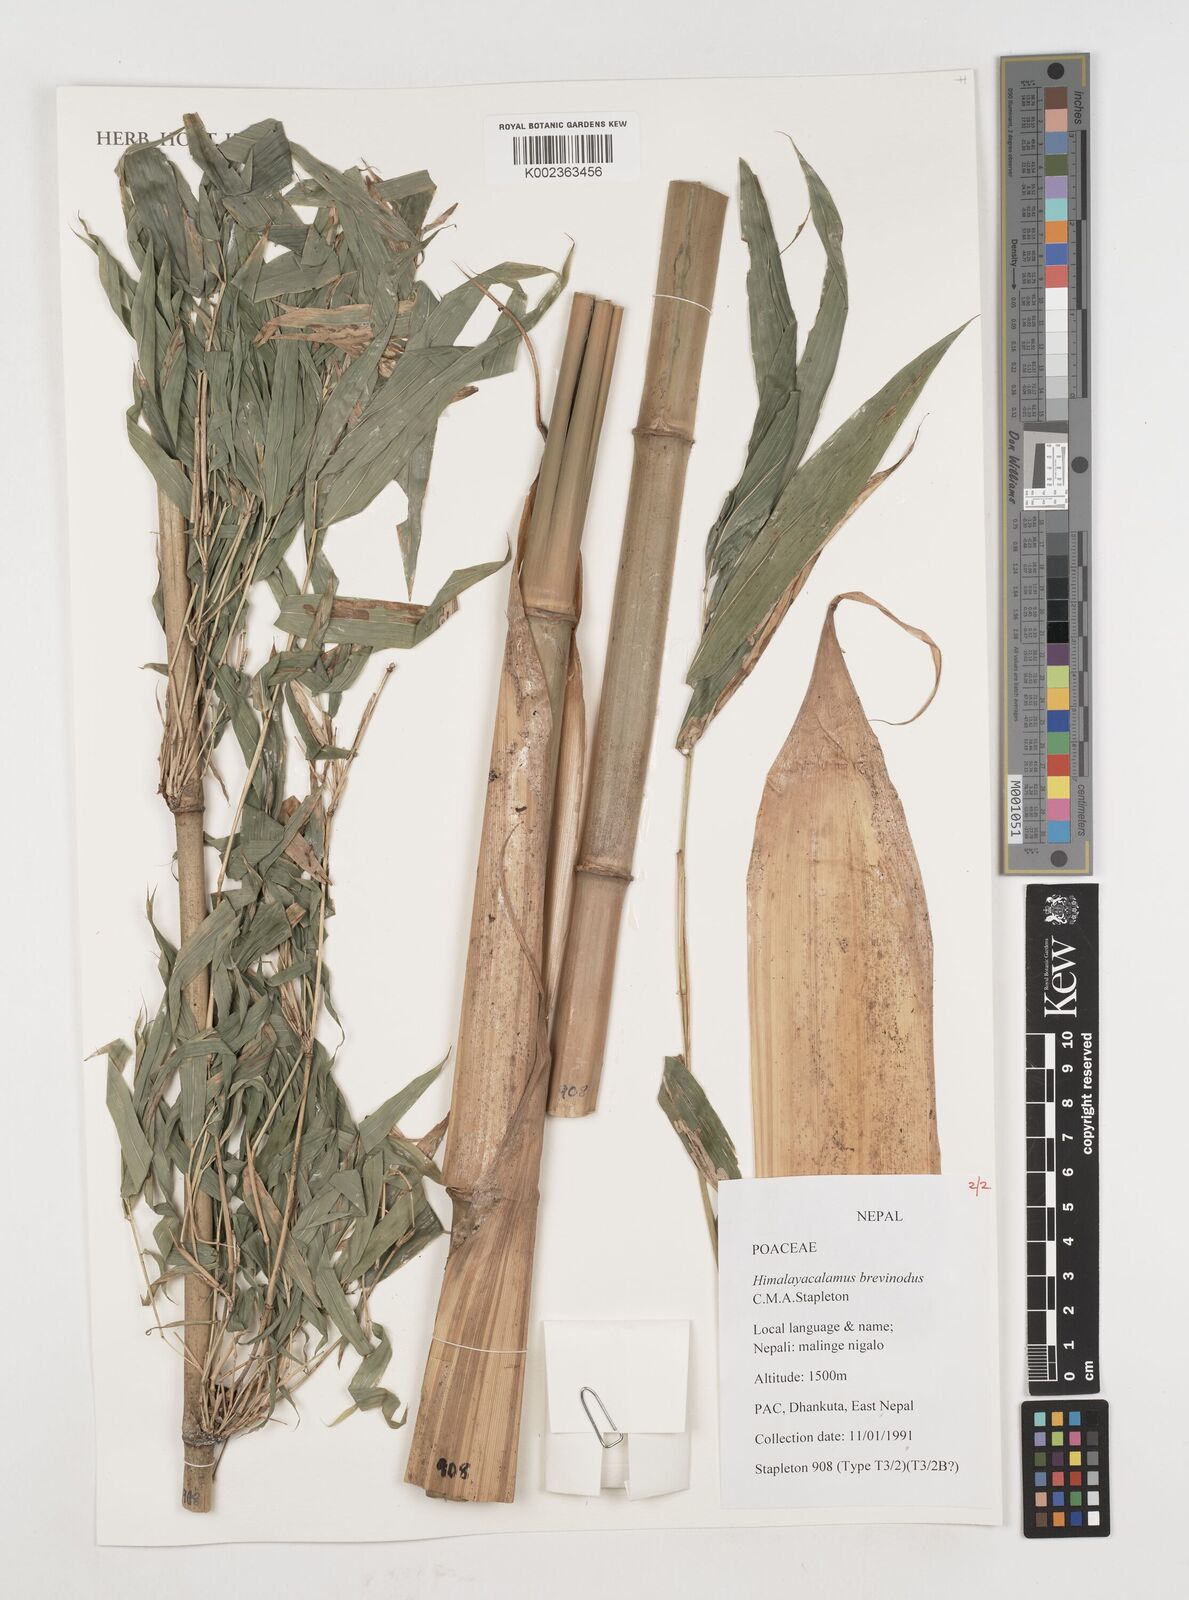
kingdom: Plantae
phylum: Tracheophyta
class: Liliopsida
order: Poales
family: Poaceae
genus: Himalayacalamus
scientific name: Himalayacalamus brevinodus
